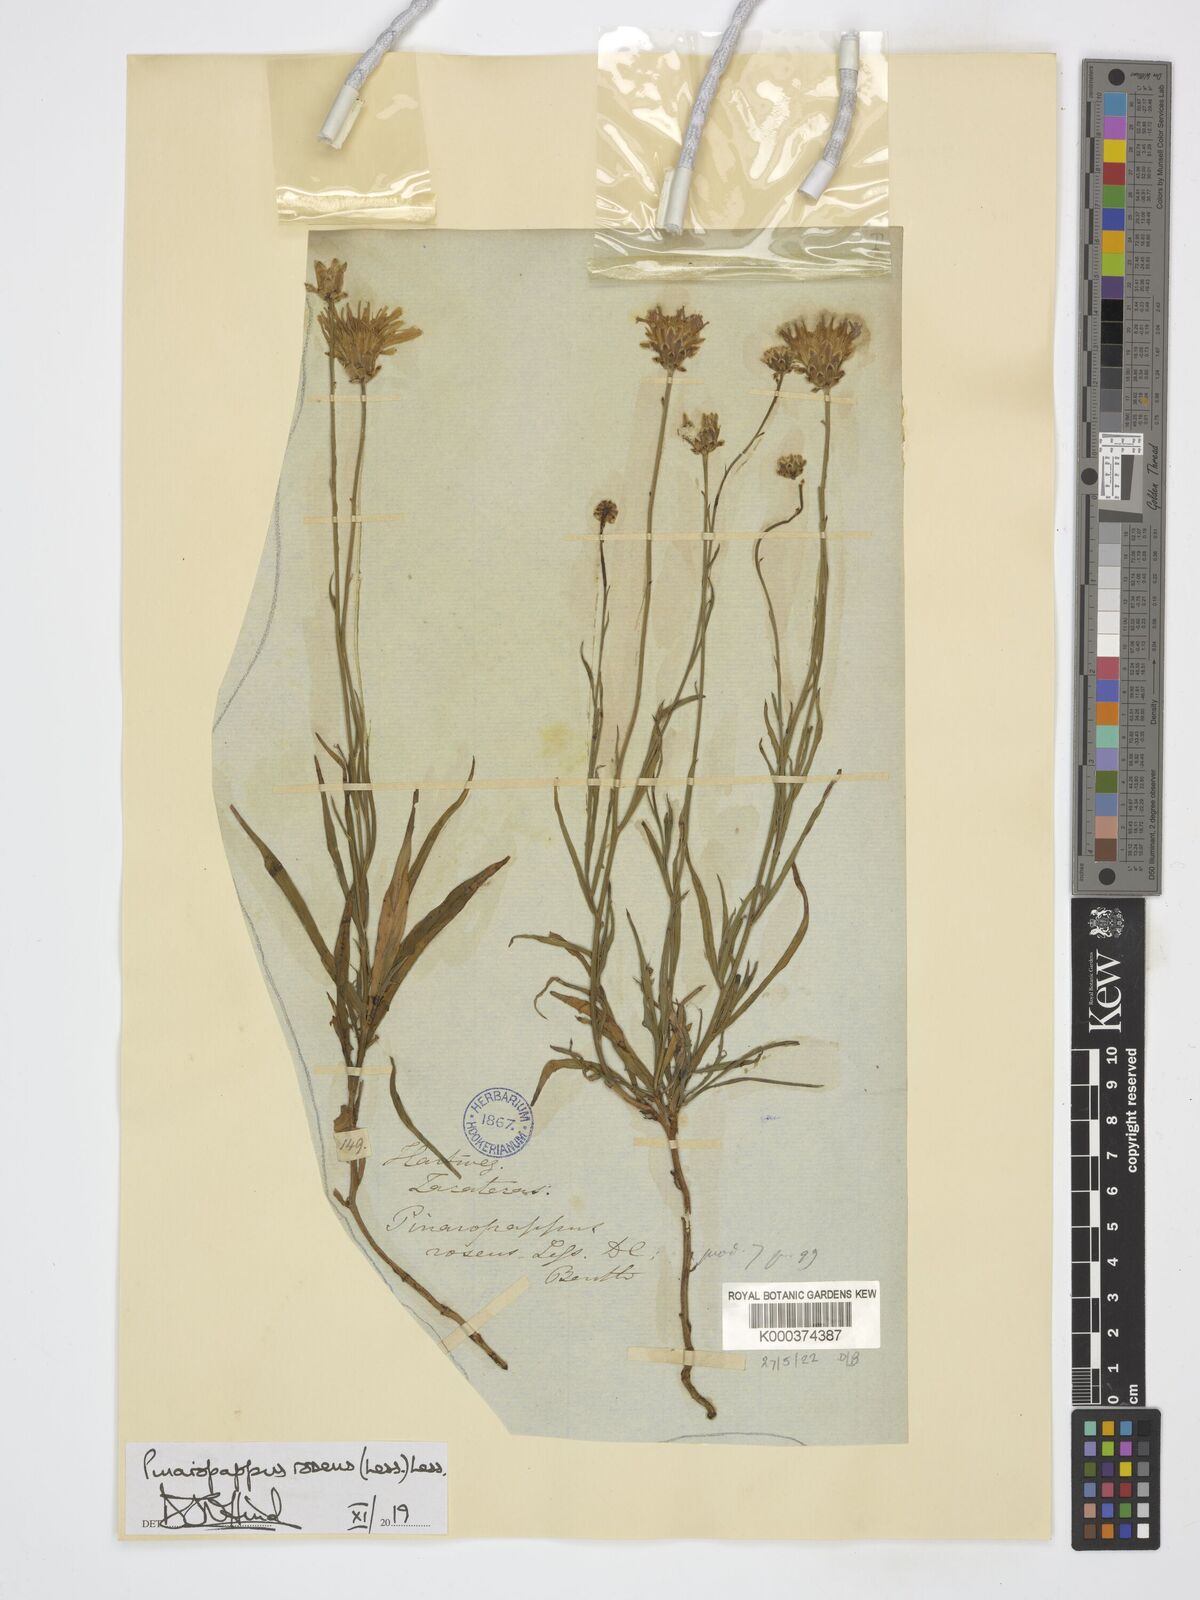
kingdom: Plantae
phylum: Tracheophyta
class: Magnoliopsida
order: Asterales
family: Asteraceae
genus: Pinaropappus
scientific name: Pinaropappus roseus
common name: Rock-lettuce
